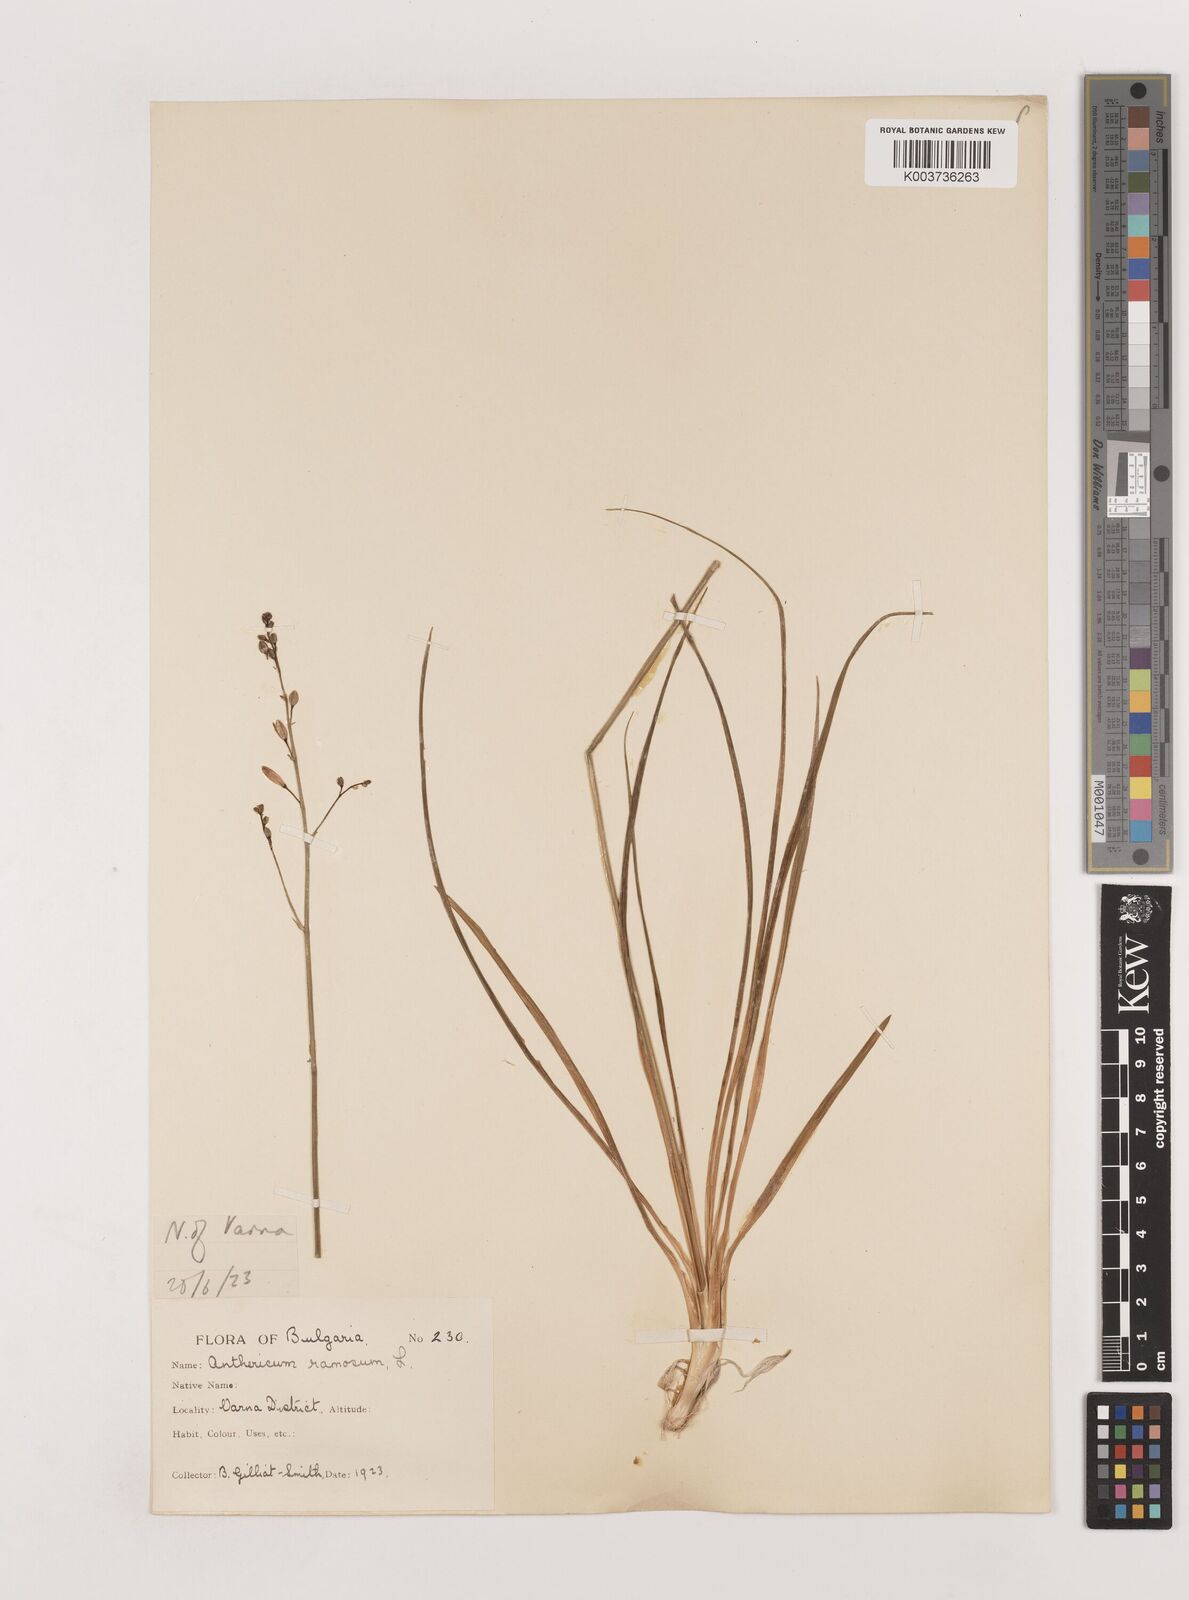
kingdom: Plantae
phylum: Tracheophyta
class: Liliopsida
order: Asparagales
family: Asparagaceae
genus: Anthericum
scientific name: Anthericum ramosum
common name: Branched st. bernard's-lily
